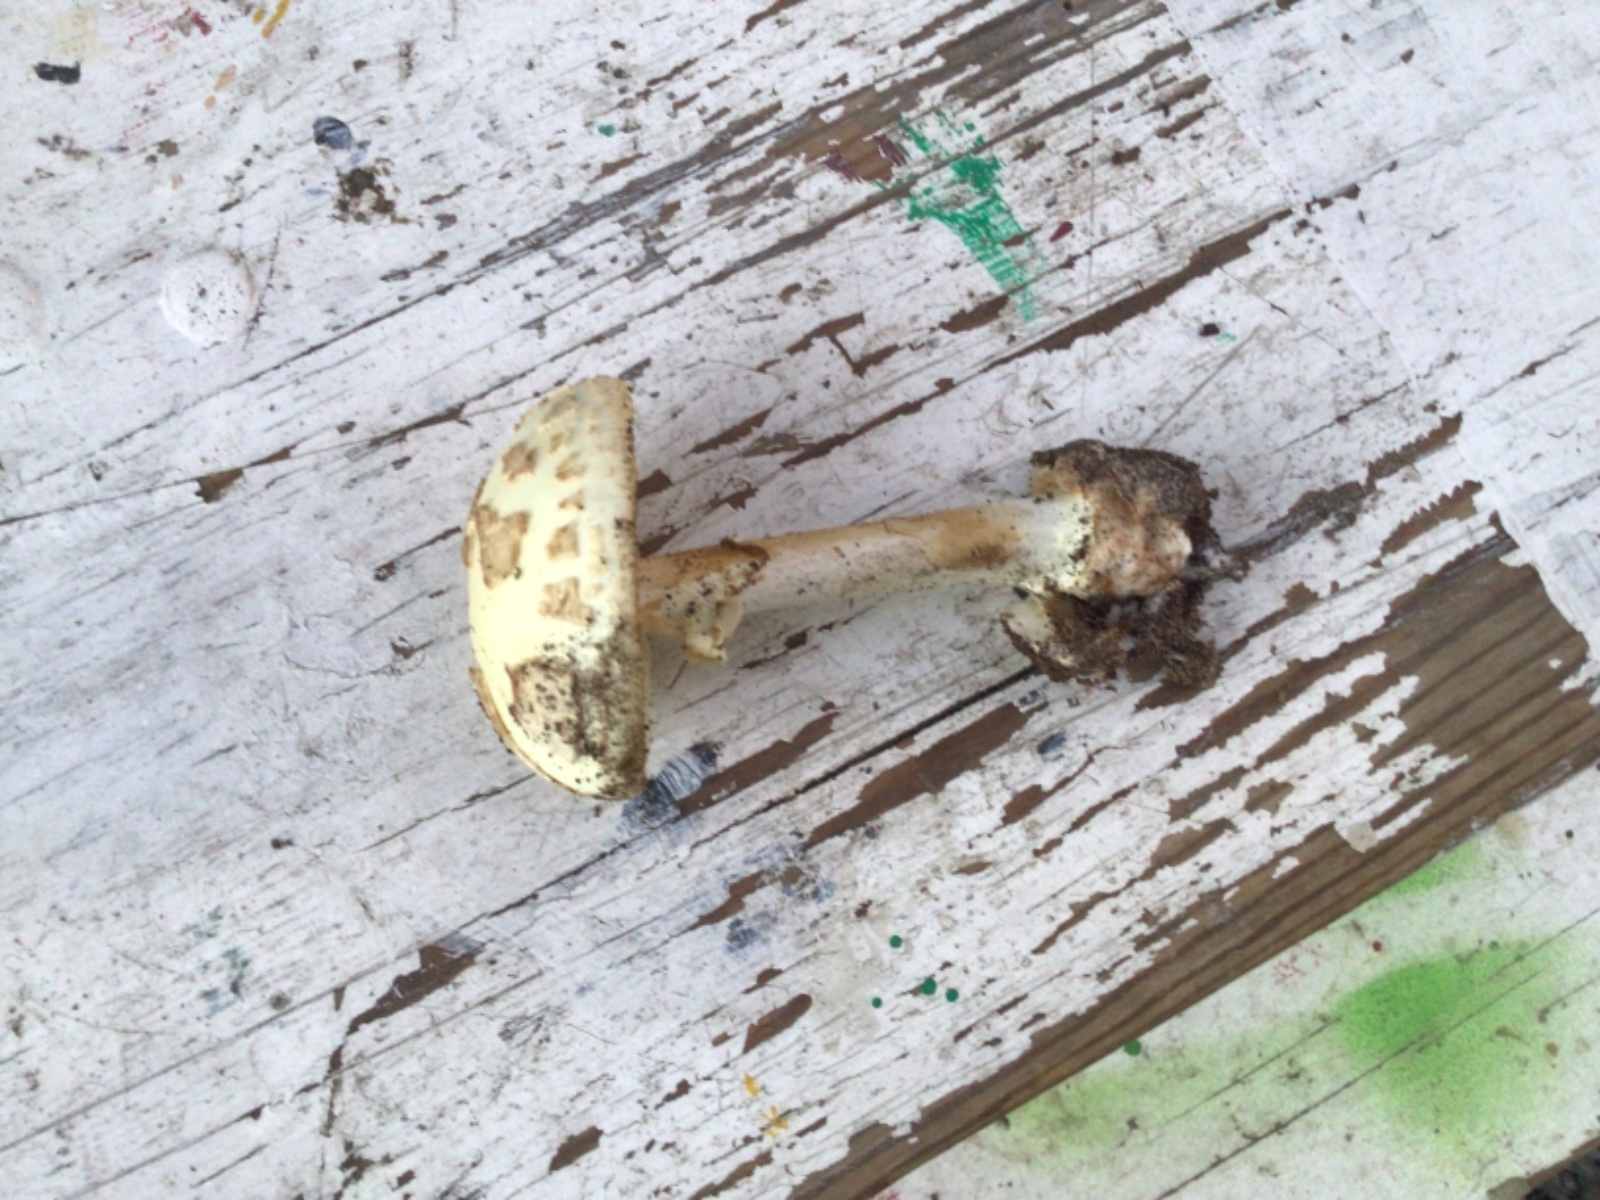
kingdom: Fungi
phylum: Basidiomycota
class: Agaricomycetes
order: Agaricales
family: Amanitaceae
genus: Amanita
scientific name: Amanita citrina
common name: kugleknoldet fluesvamp
